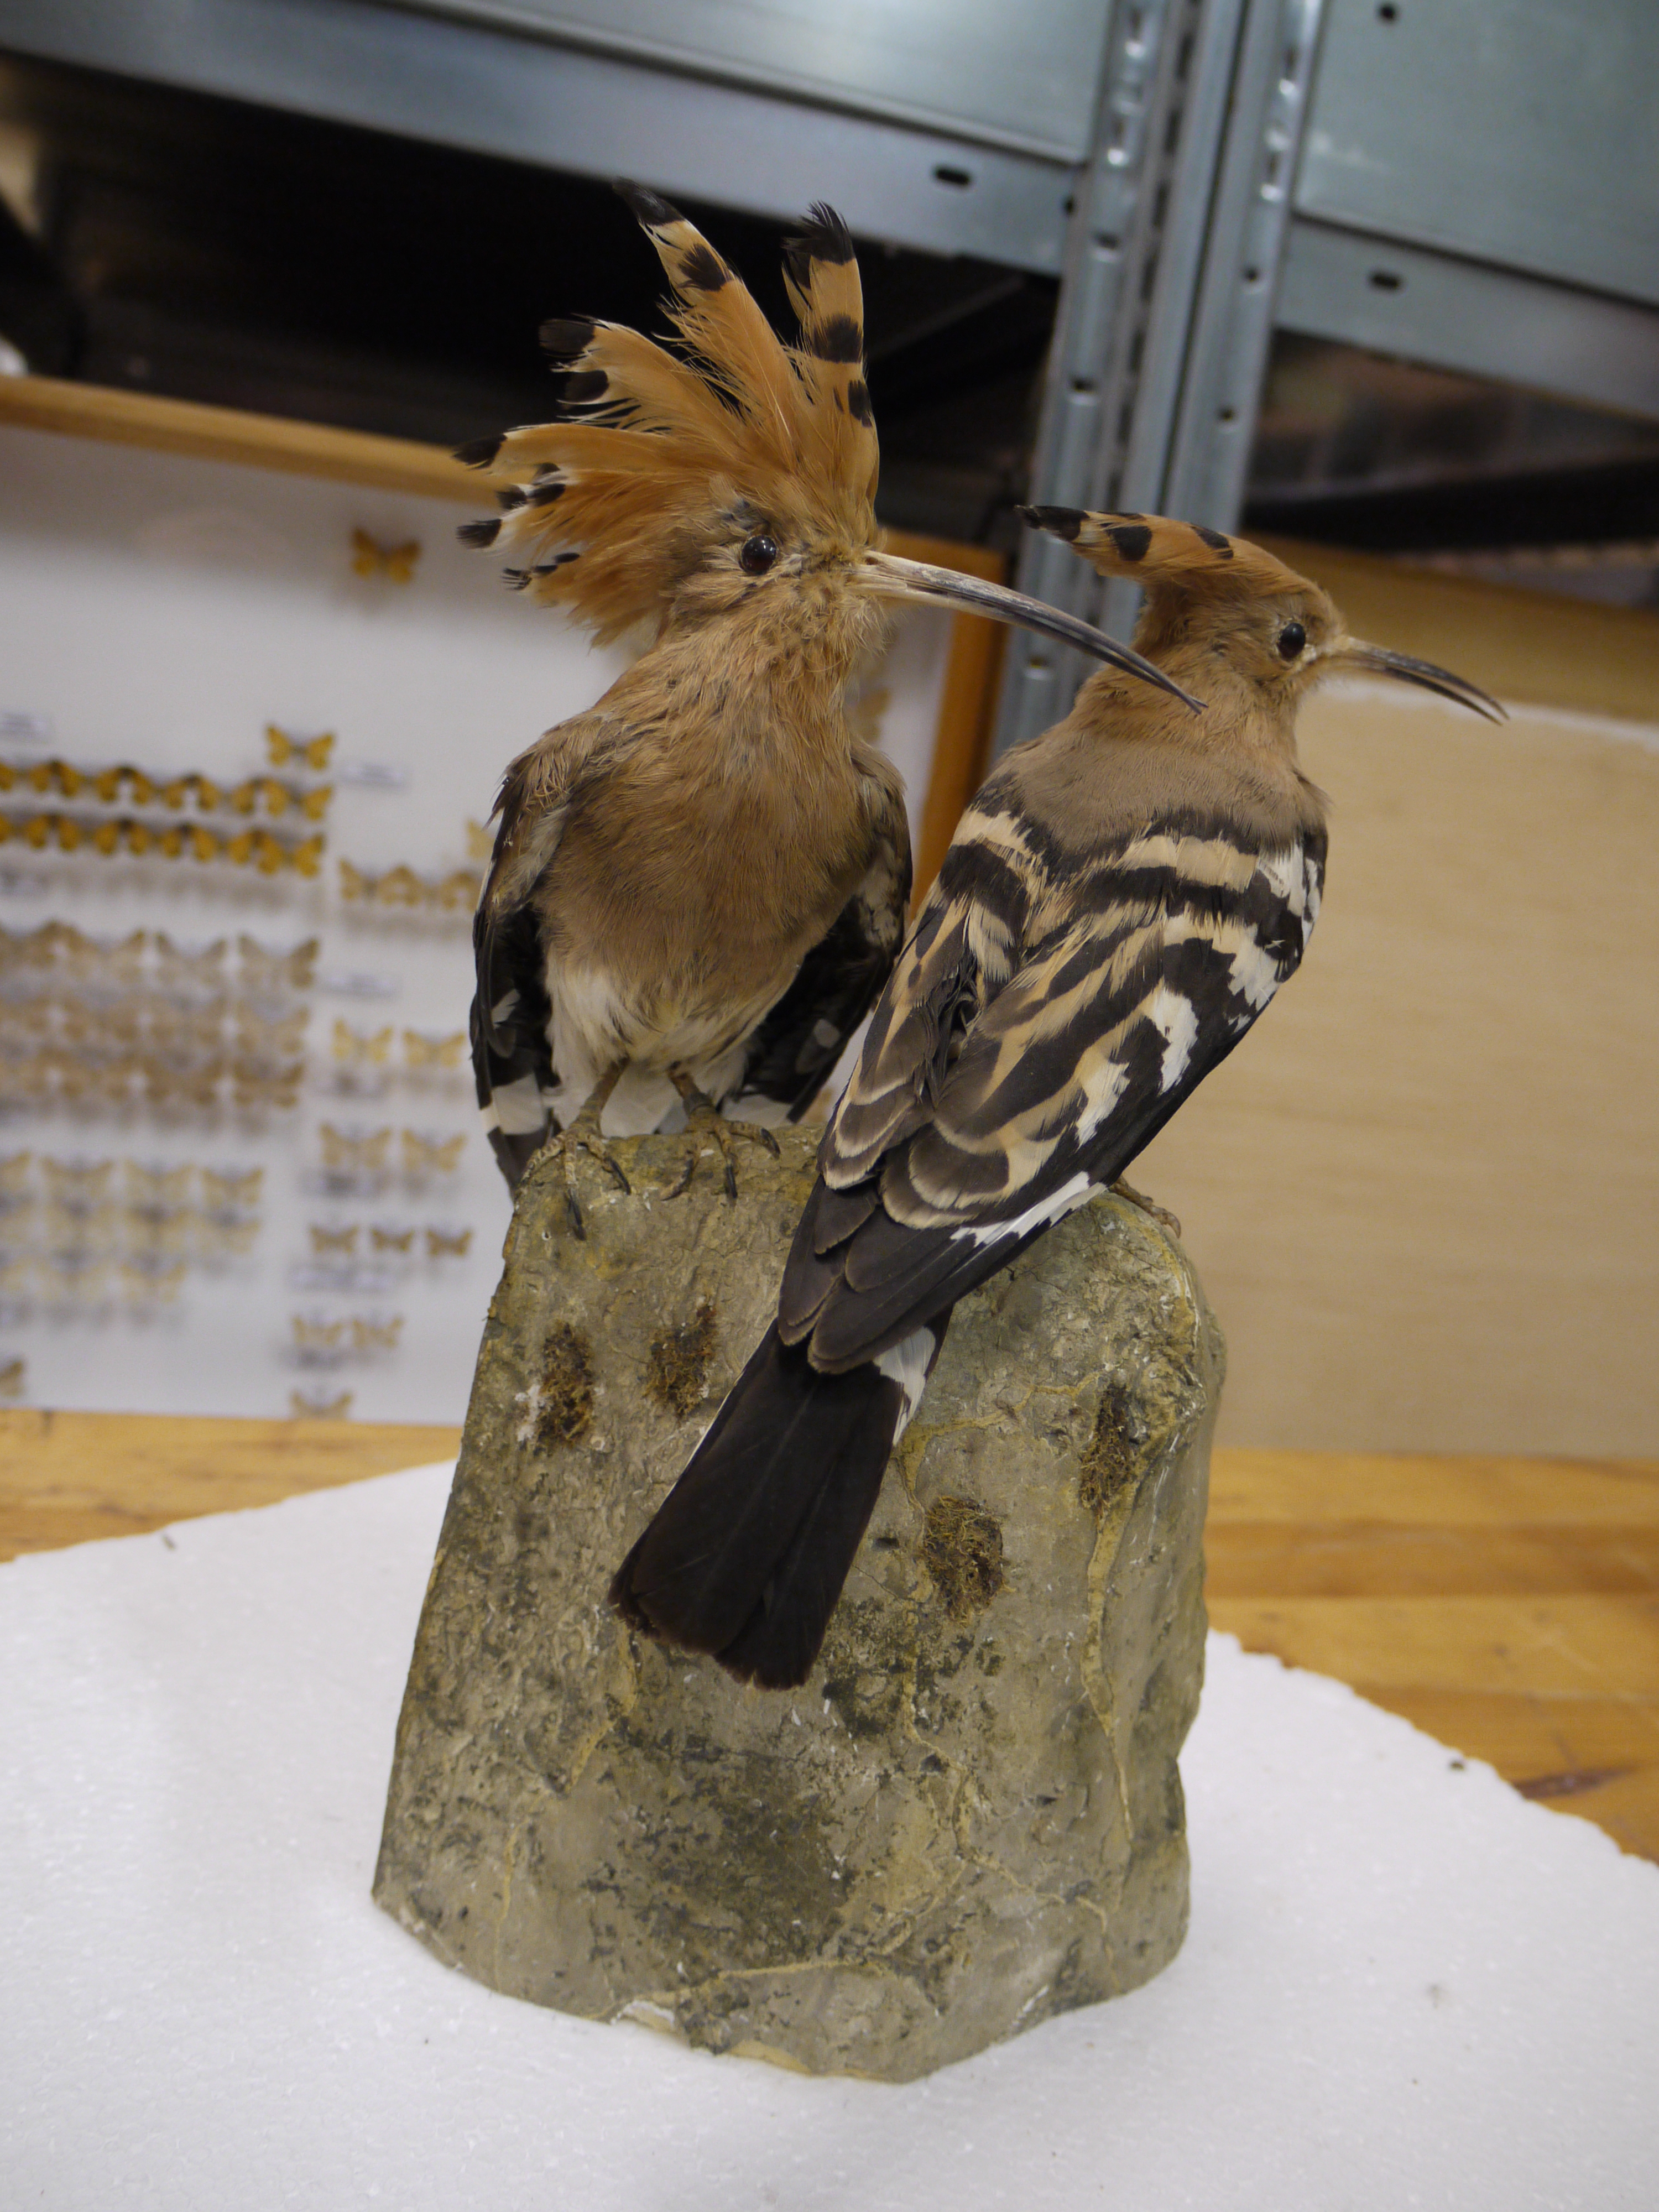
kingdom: Animalia
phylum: Chordata
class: Aves
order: Bucerotiformes
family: Upupidae
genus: Upupa
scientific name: Upupa epops
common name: Eurasian hoopoe
